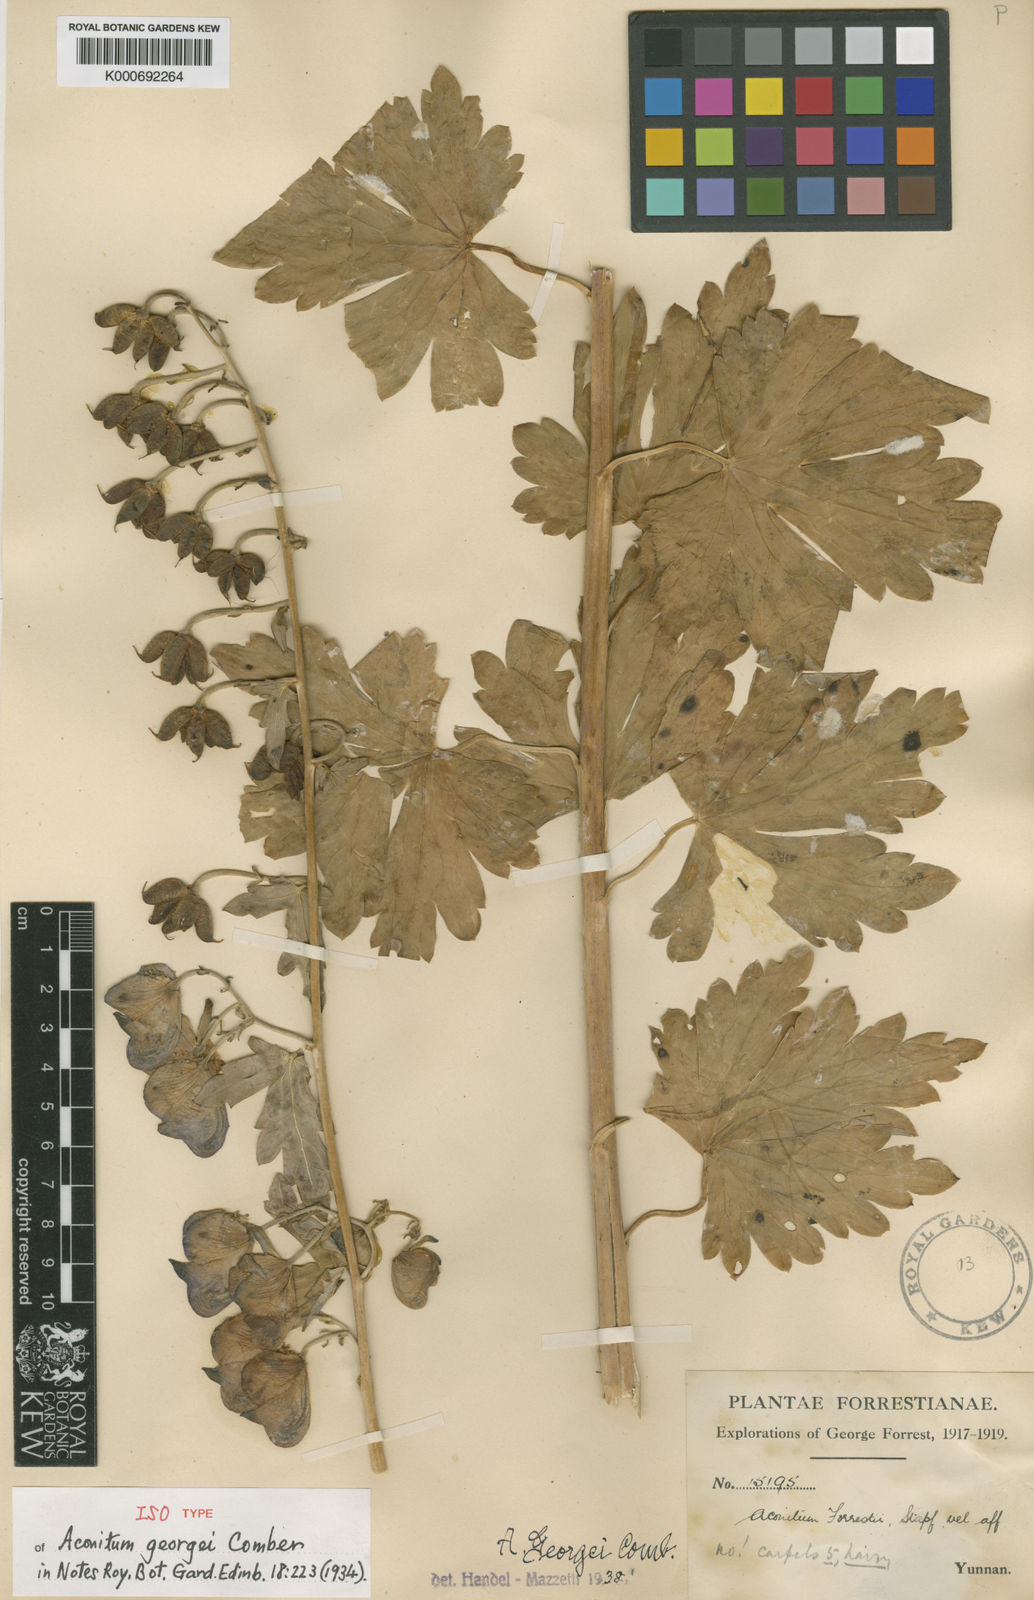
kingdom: Plantae
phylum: Tracheophyta
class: Magnoliopsida
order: Ranunculales
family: Ranunculaceae
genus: Aconitum
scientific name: Aconitum georgei
